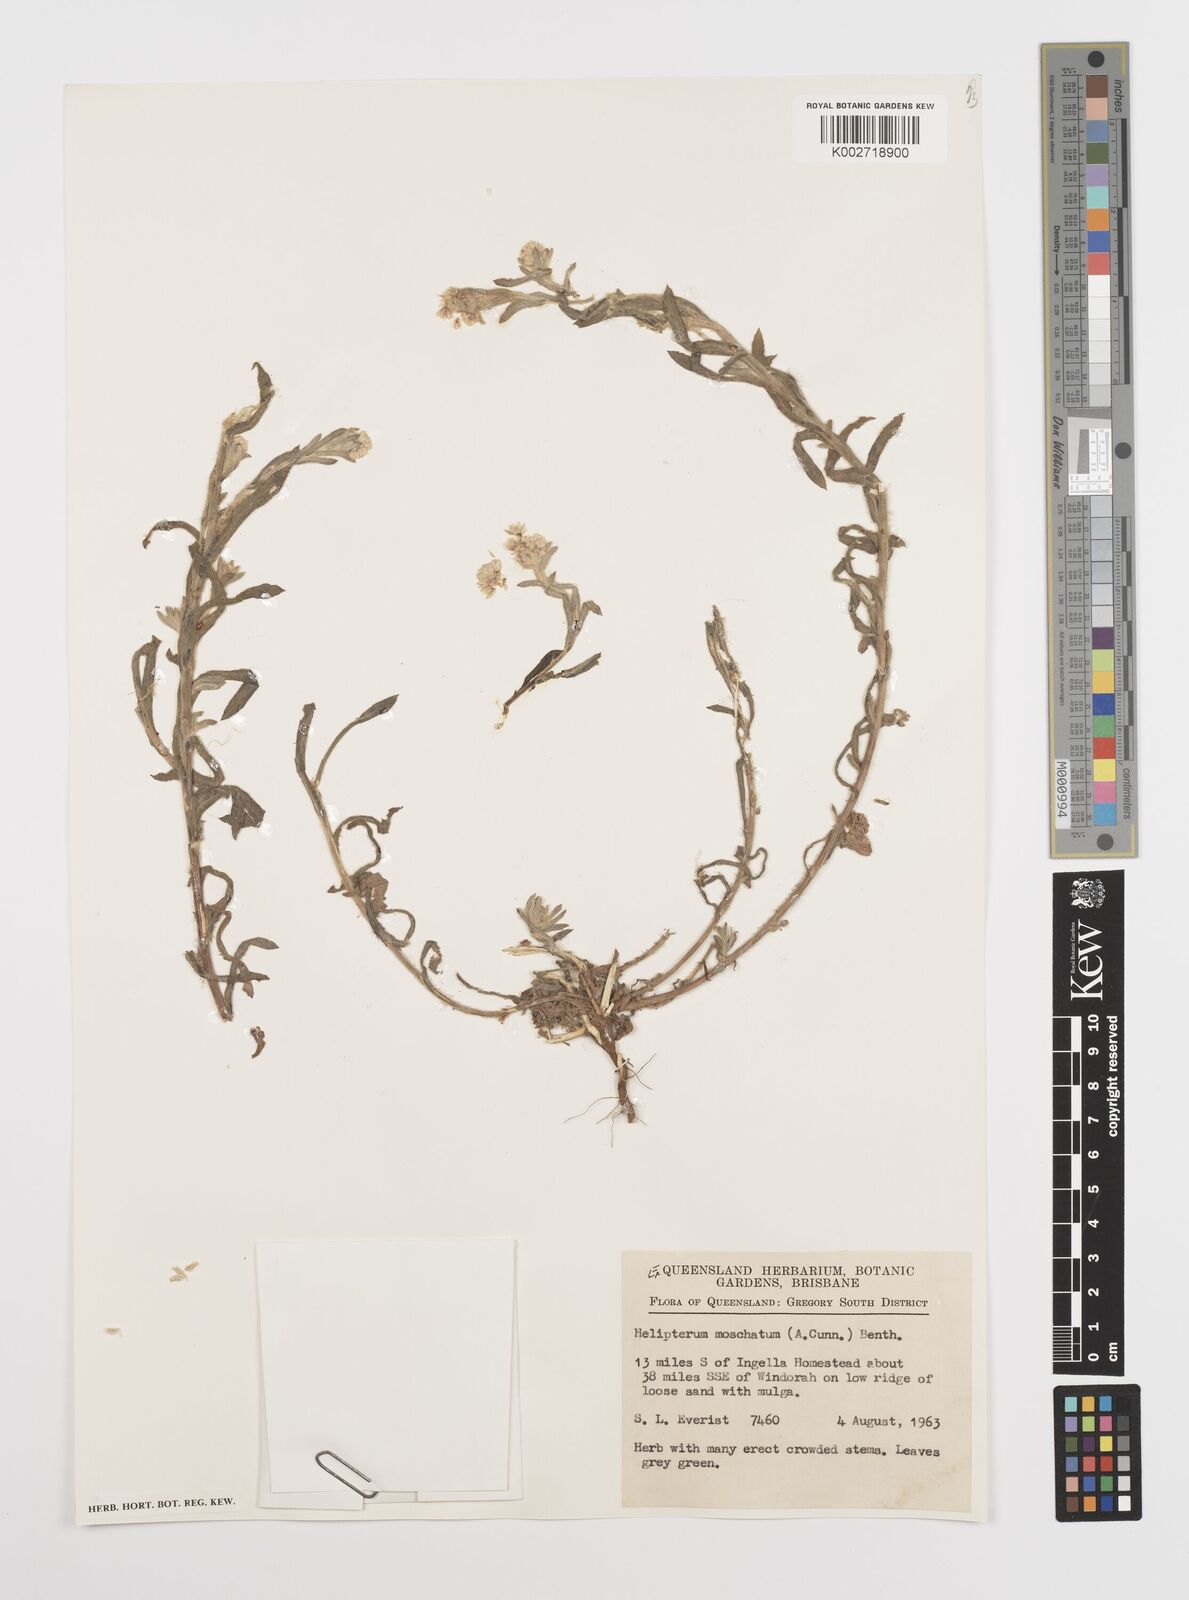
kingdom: Plantae
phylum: Tracheophyta
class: Magnoliopsida
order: Asterales
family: Asteraceae
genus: Rhodanthe
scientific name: Rhodanthe moschata
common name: Musk sunray
